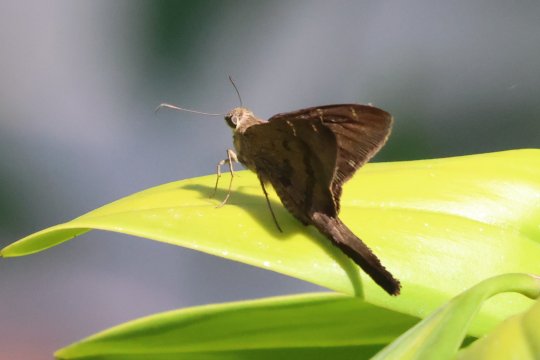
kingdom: Animalia
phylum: Arthropoda
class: Insecta
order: Lepidoptera
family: Hesperiidae
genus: Urbanus
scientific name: Urbanus teleus
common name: Teleus Longtail
